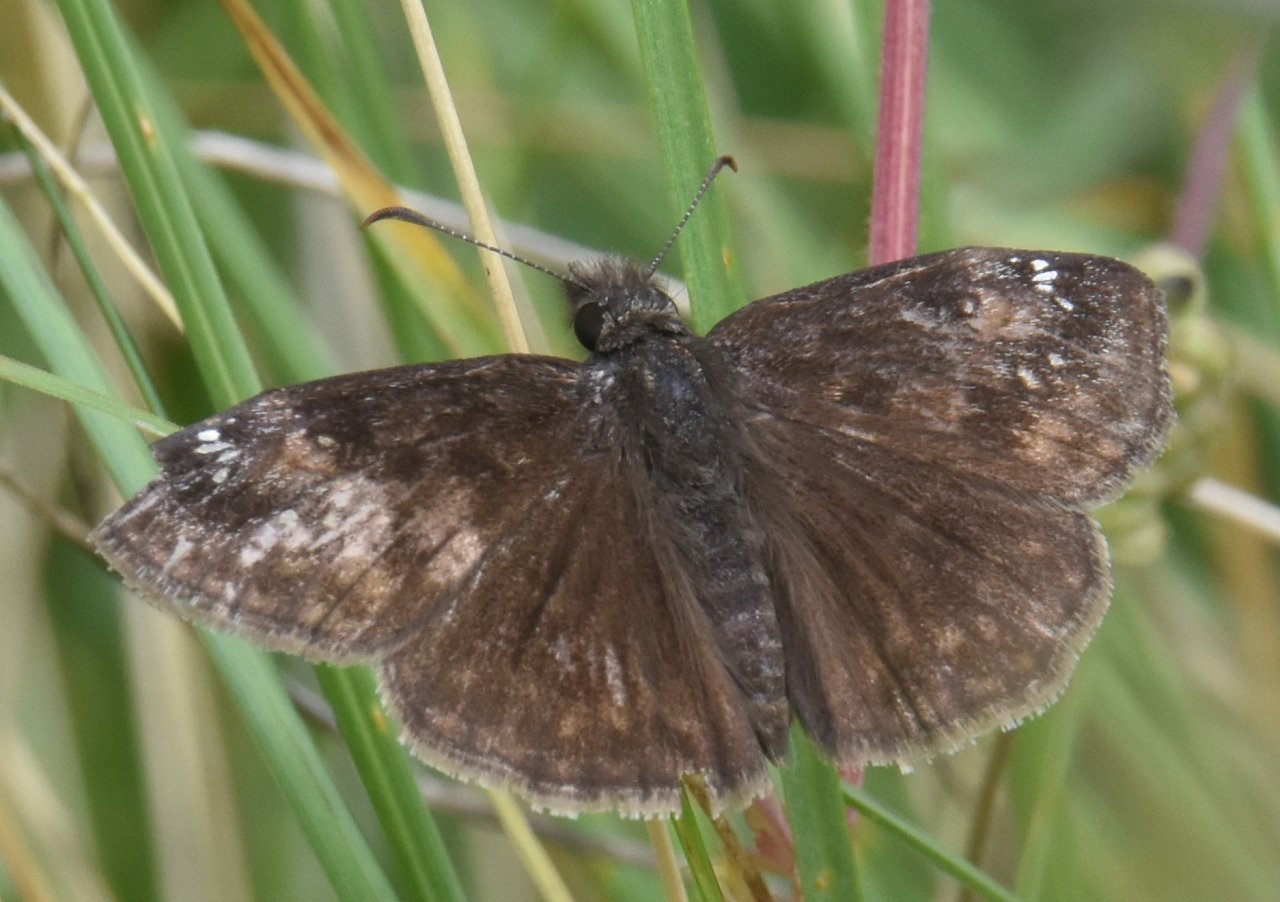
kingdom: Animalia
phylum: Arthropoda
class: Insecta
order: Lepidoptera
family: Hesperiidae
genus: Gesta
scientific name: Gesta
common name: Wild Indigo Duskywing
